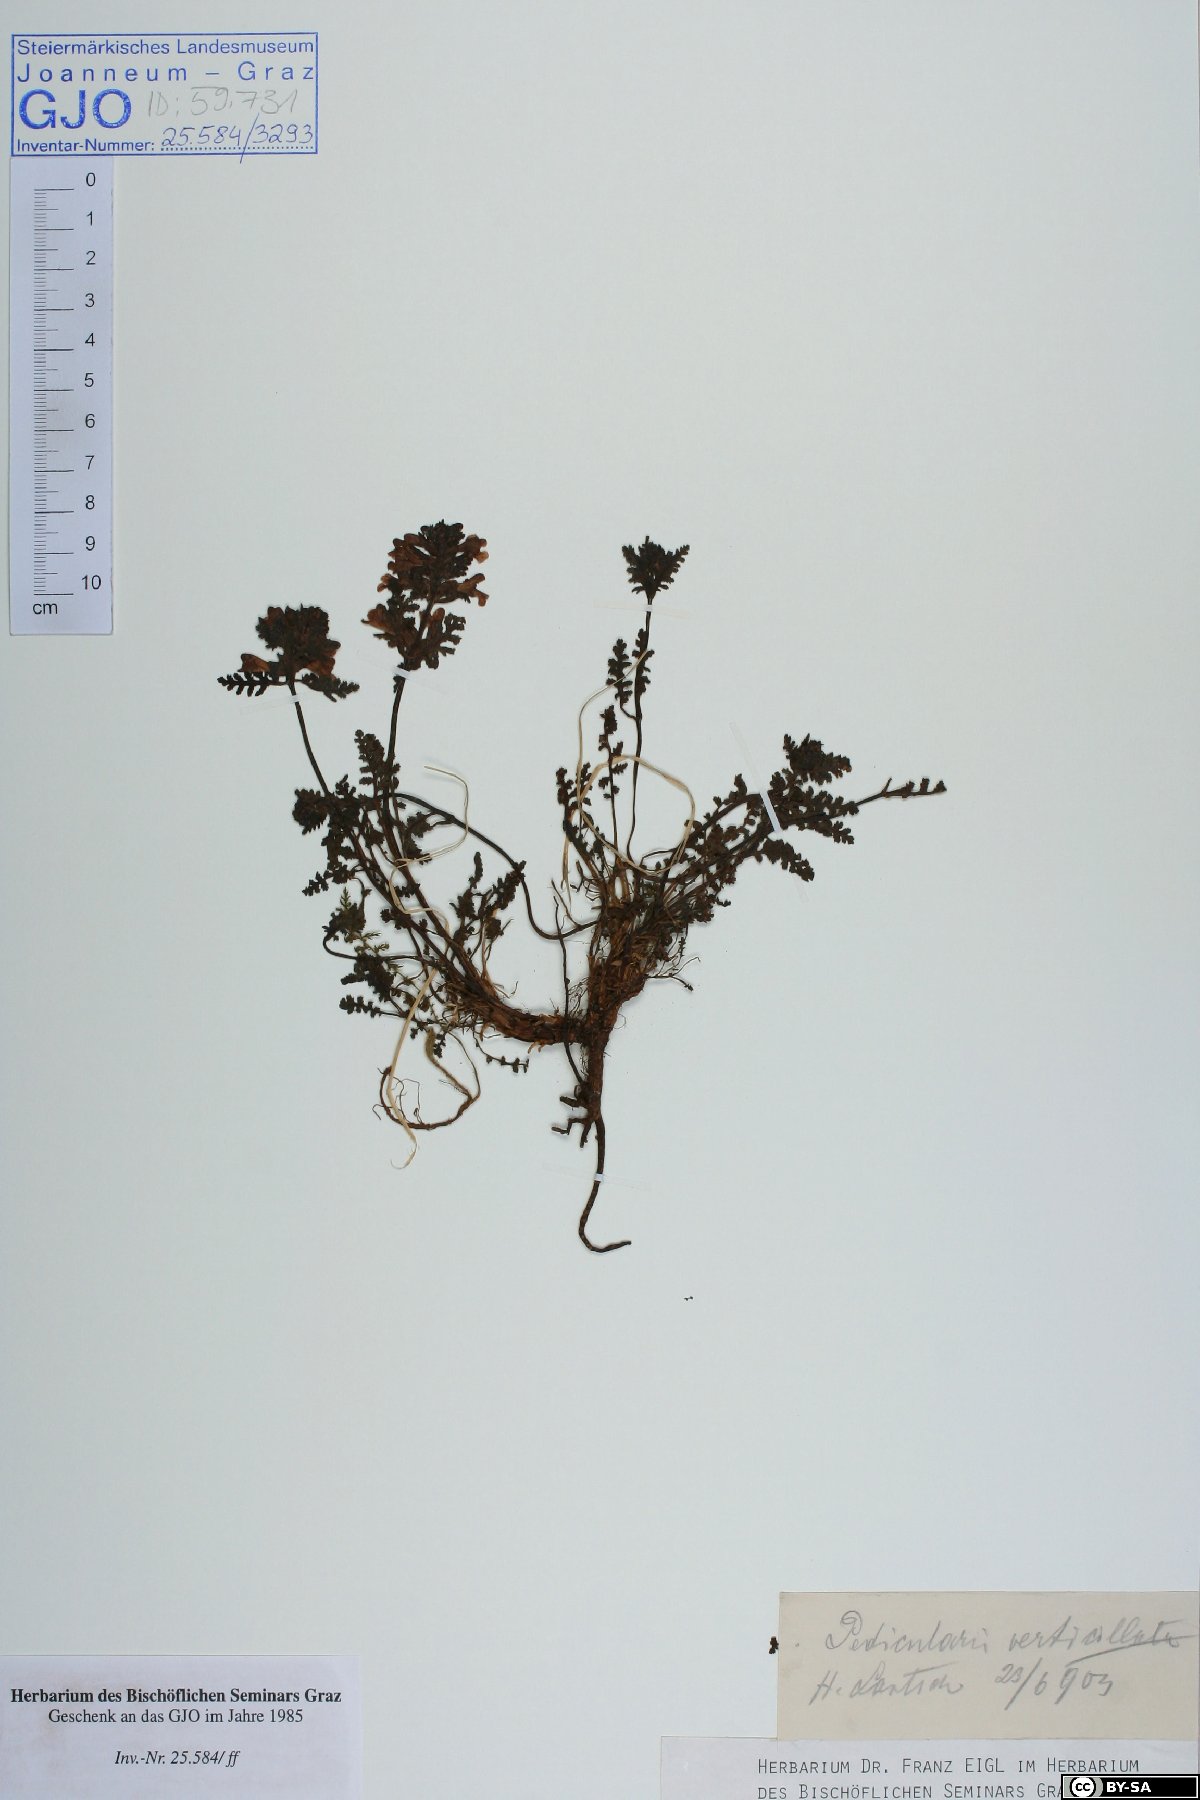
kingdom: Plantae
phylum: Tracheophyta
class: Magnoliopsida
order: Lamiales
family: Orobanchaceae
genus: Pedicularis
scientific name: Pedicularis verticillata
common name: Whorled lousewort
